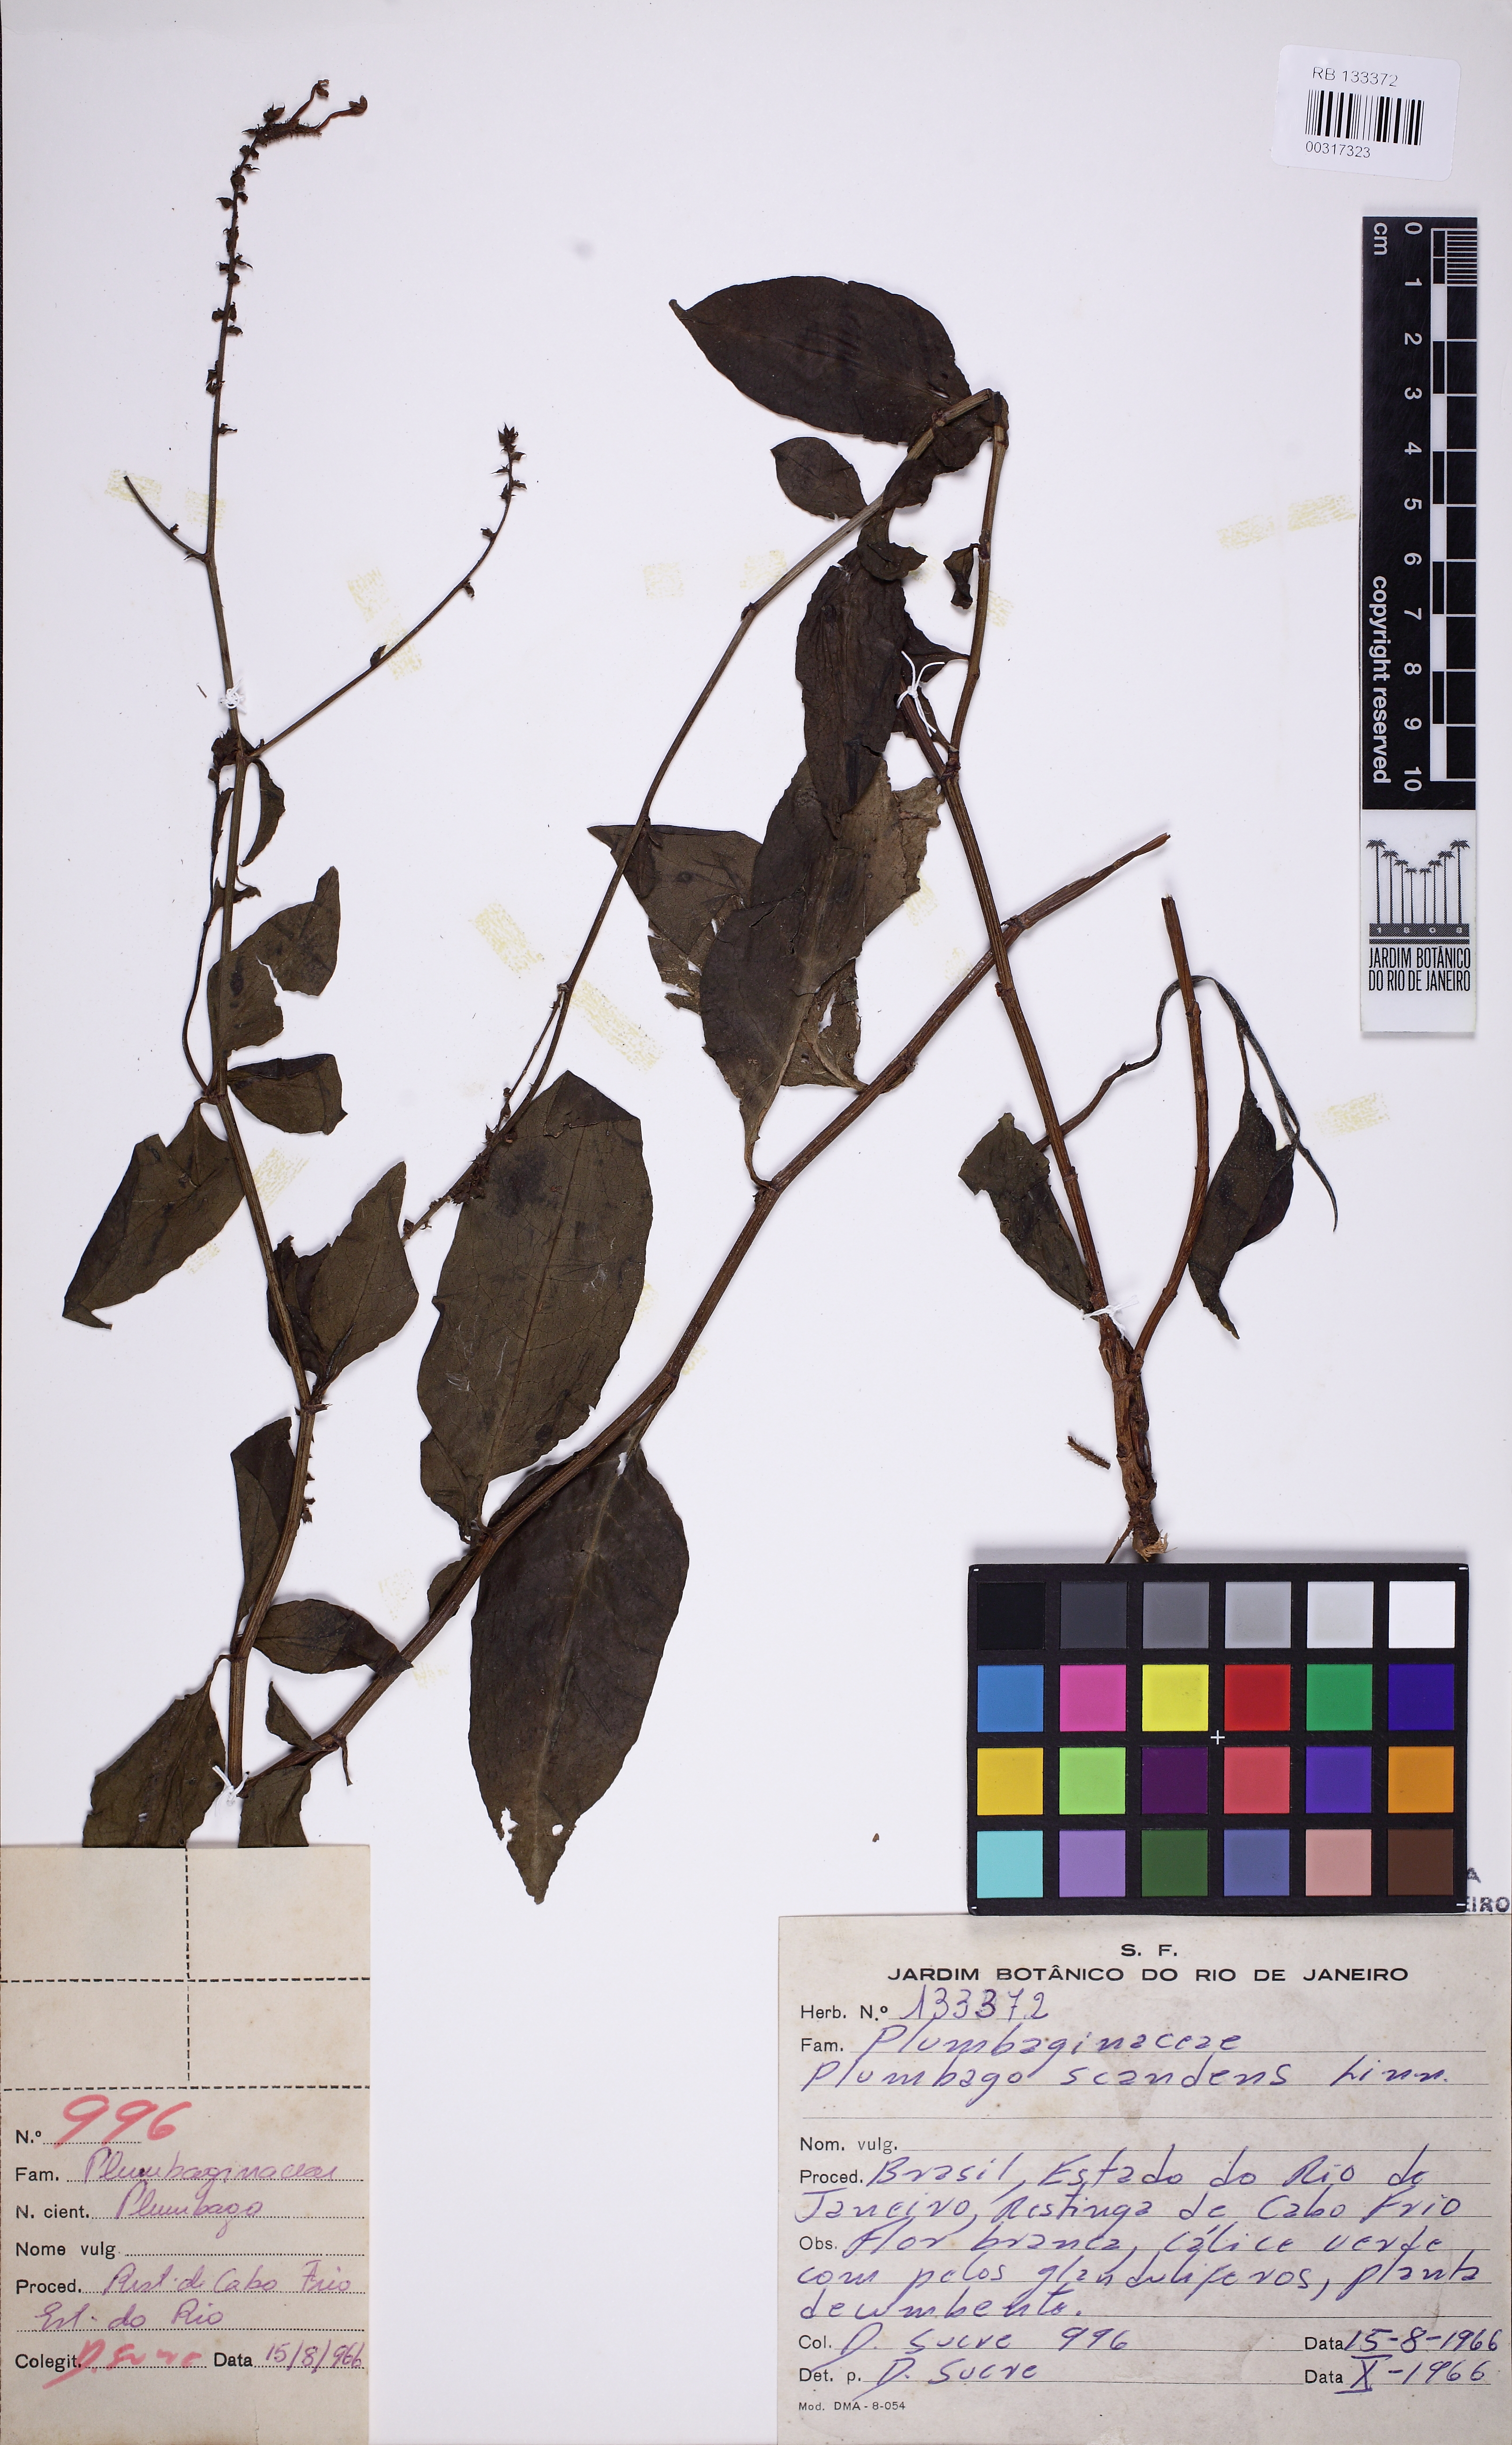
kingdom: Plantae
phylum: Tracheophyta
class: Magnoliopsida
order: Caryophyllales
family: Plumbaginaceae
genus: Plumbago
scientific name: Plumbago zeylanica
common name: Doctorbush
